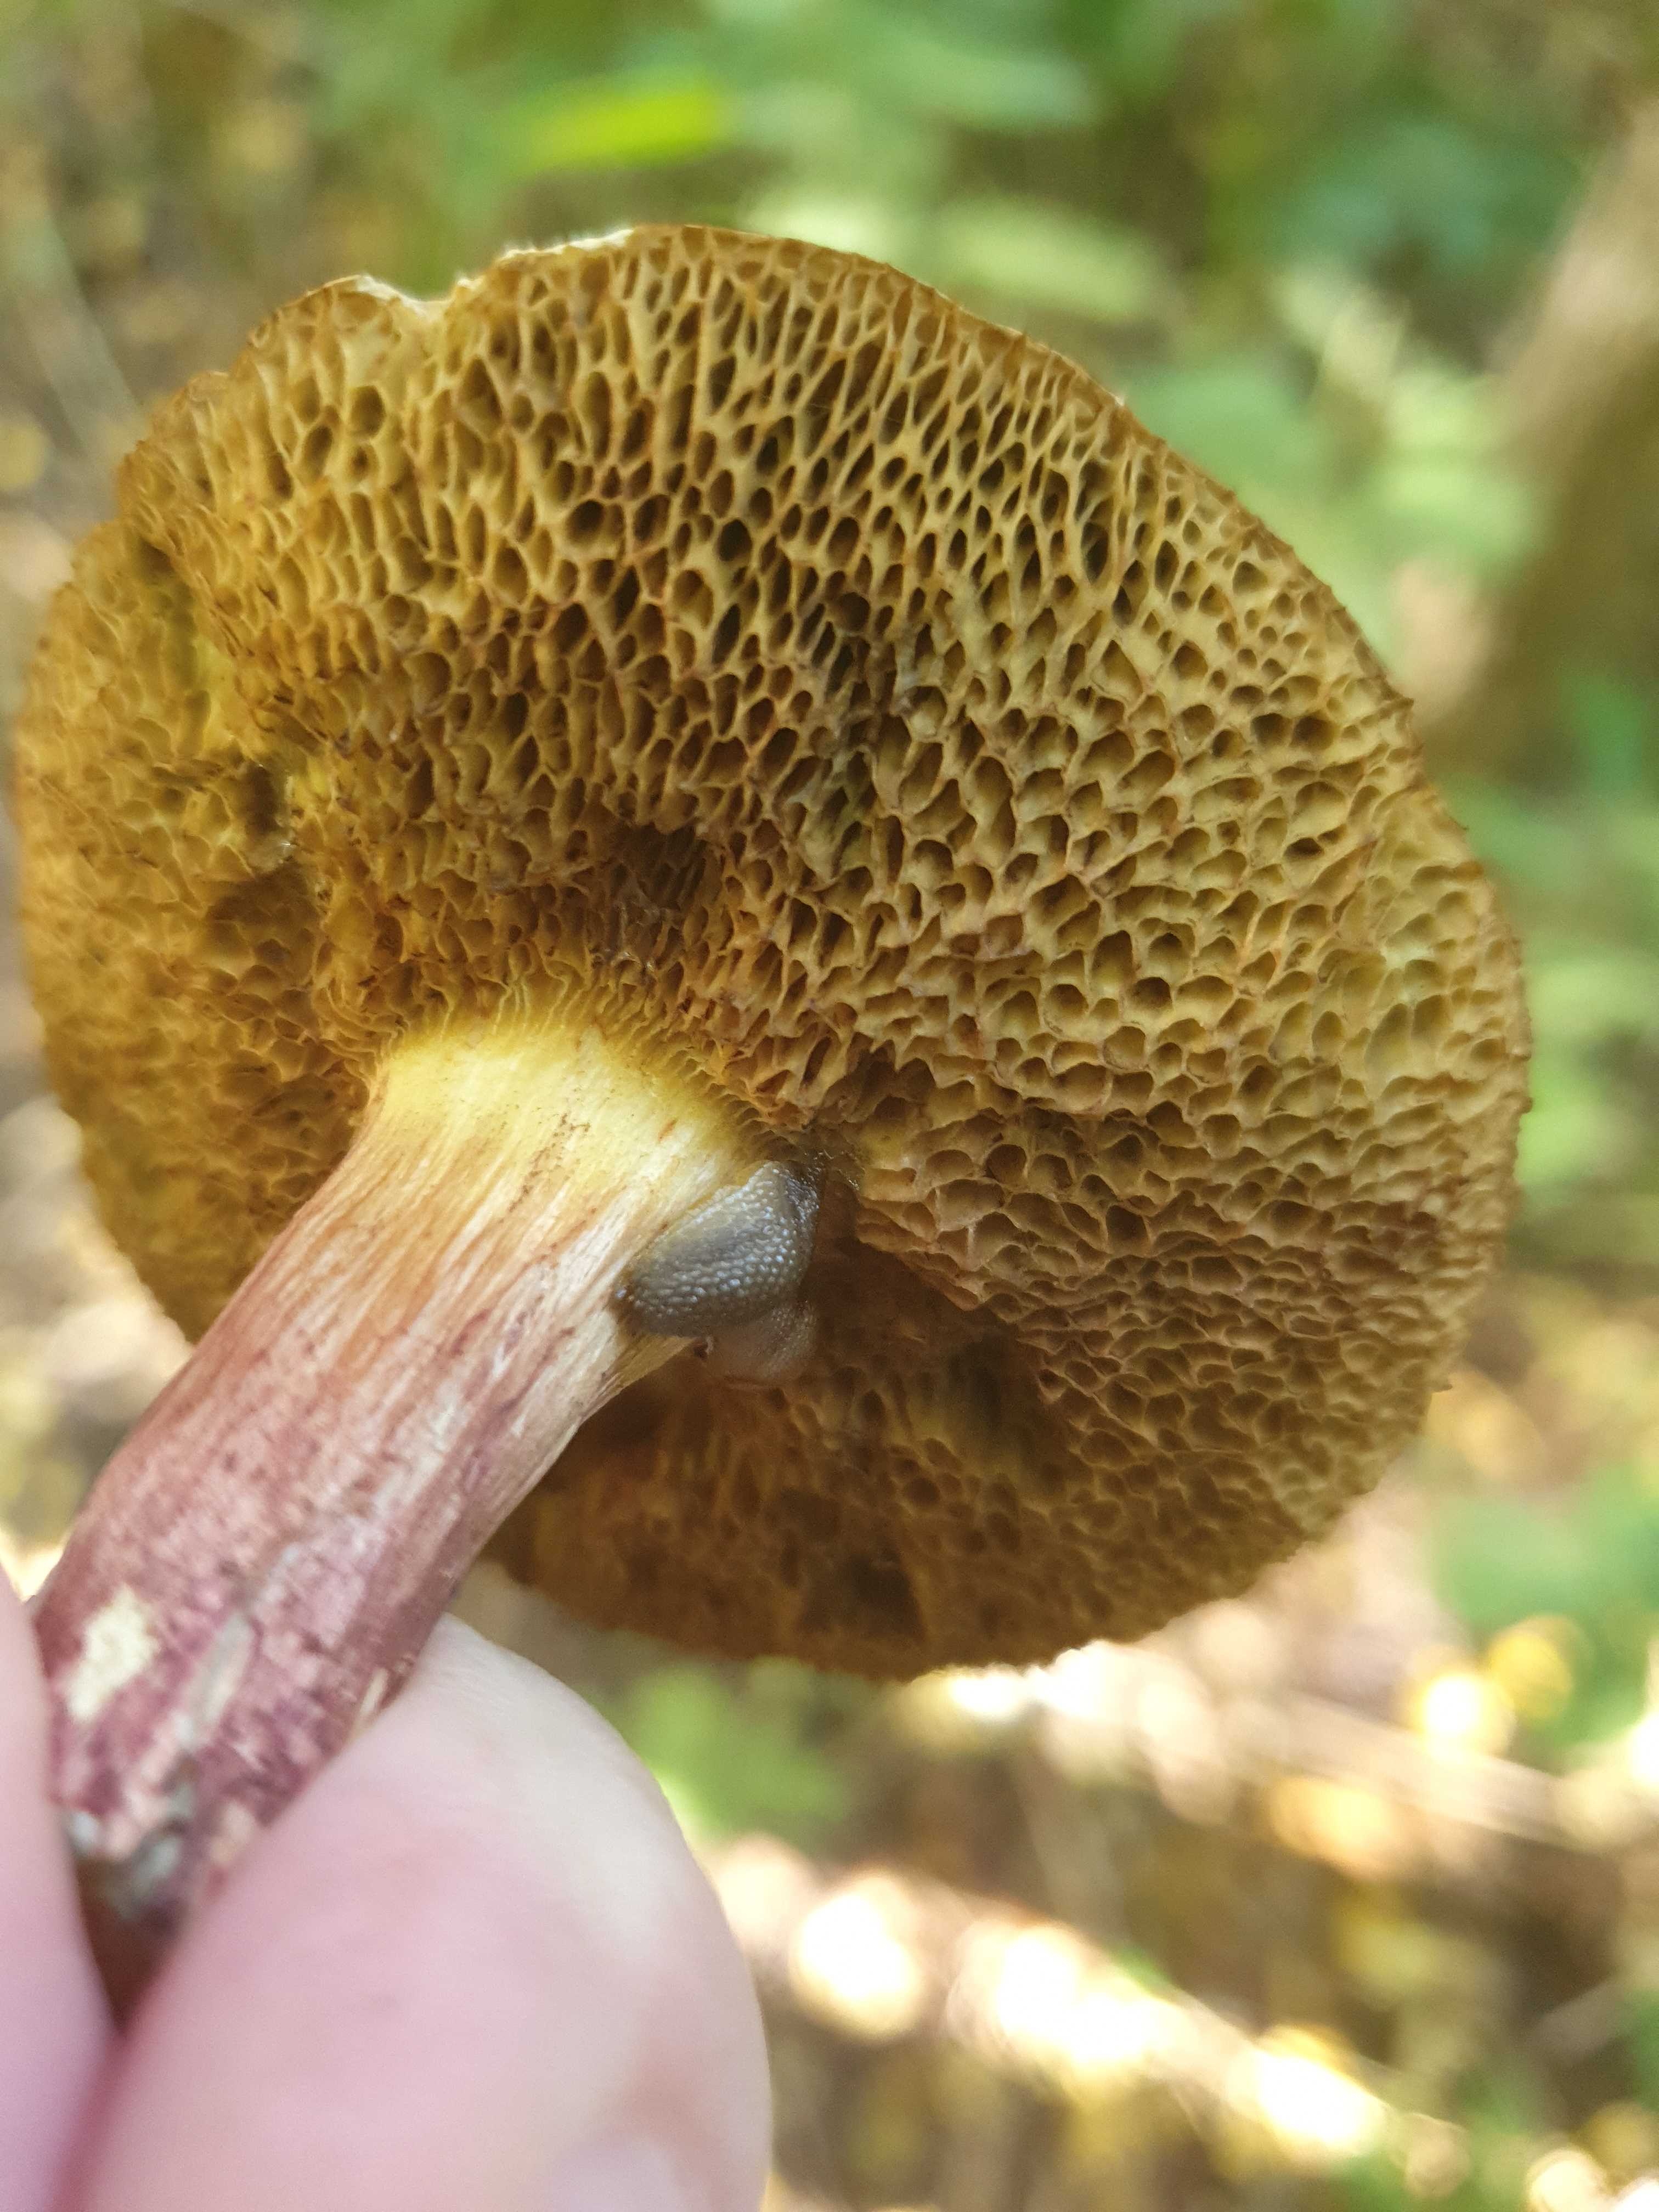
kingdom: Fungi
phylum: Basidiomycota
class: Agaricomycetes
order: Boletales
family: Boletaceae
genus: Xerocomellus
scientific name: Xerocomellus
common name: dværgrørhat
